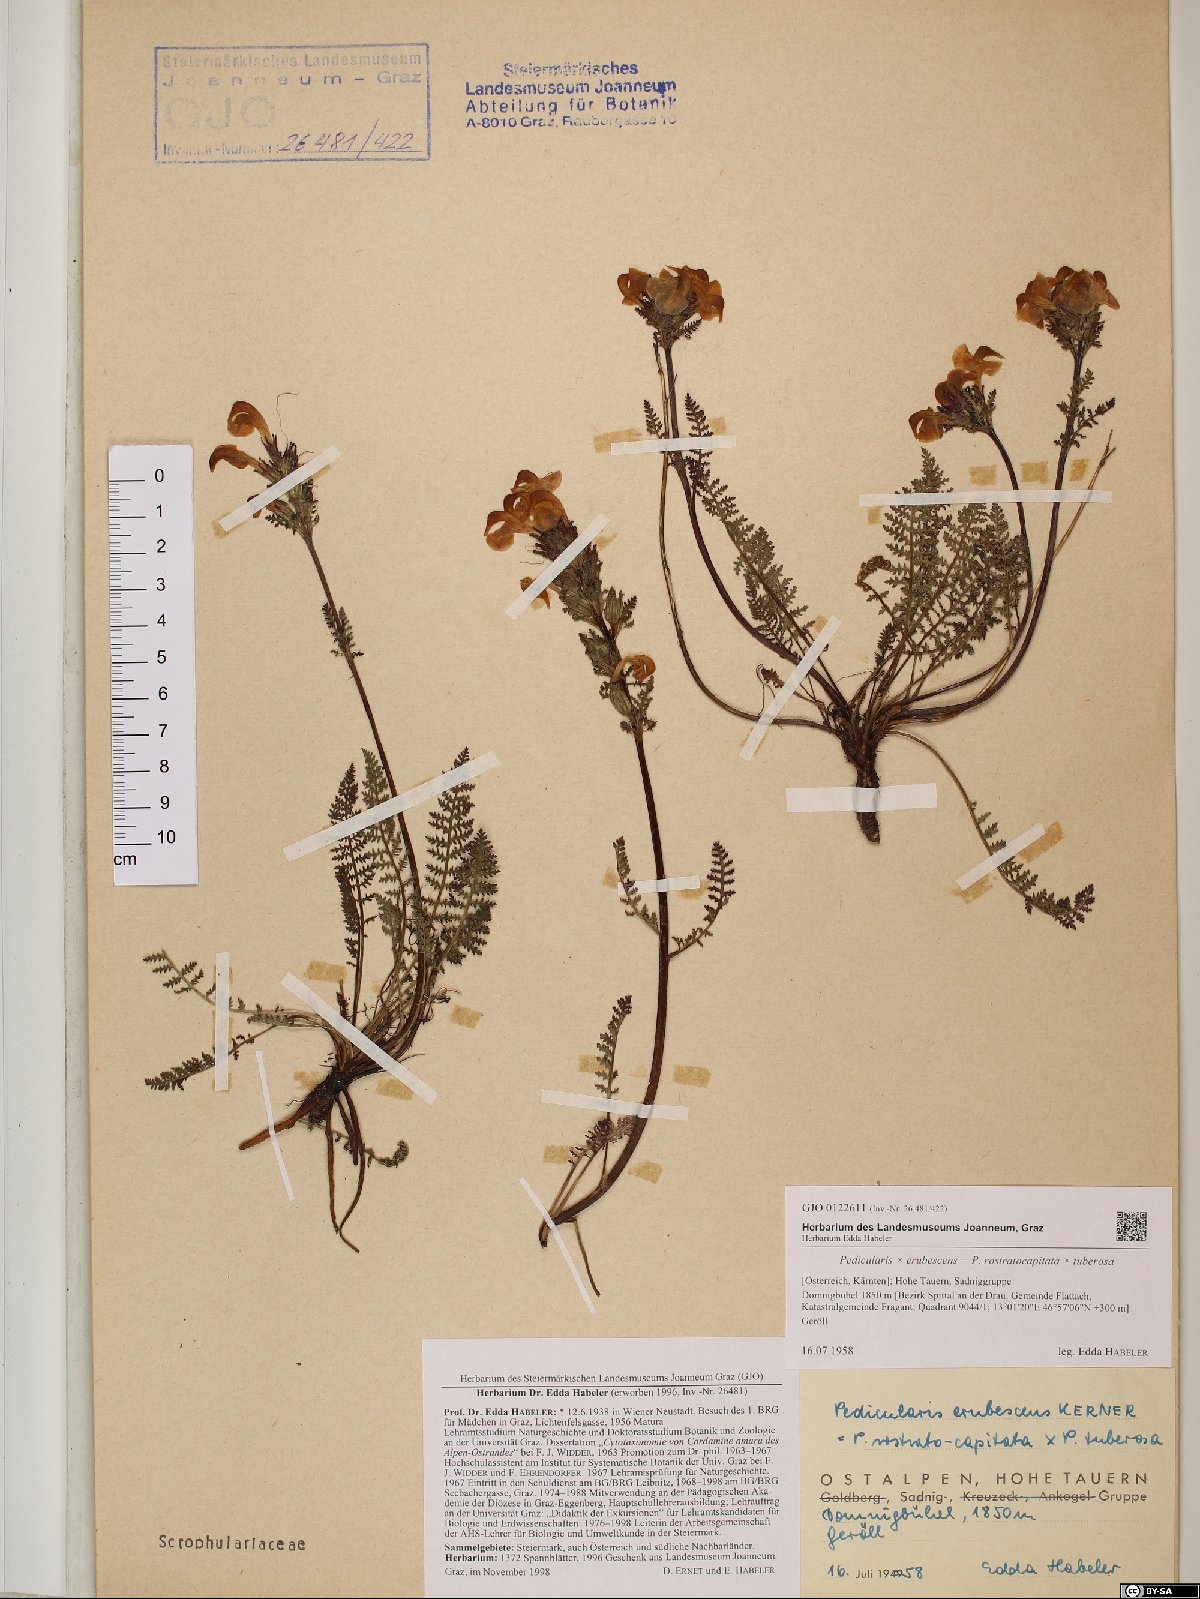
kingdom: Plantae
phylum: Tracheophyta
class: Magnoliopsida
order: Lamiales
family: Scrophulariaceae
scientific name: Scrophulariaceae
